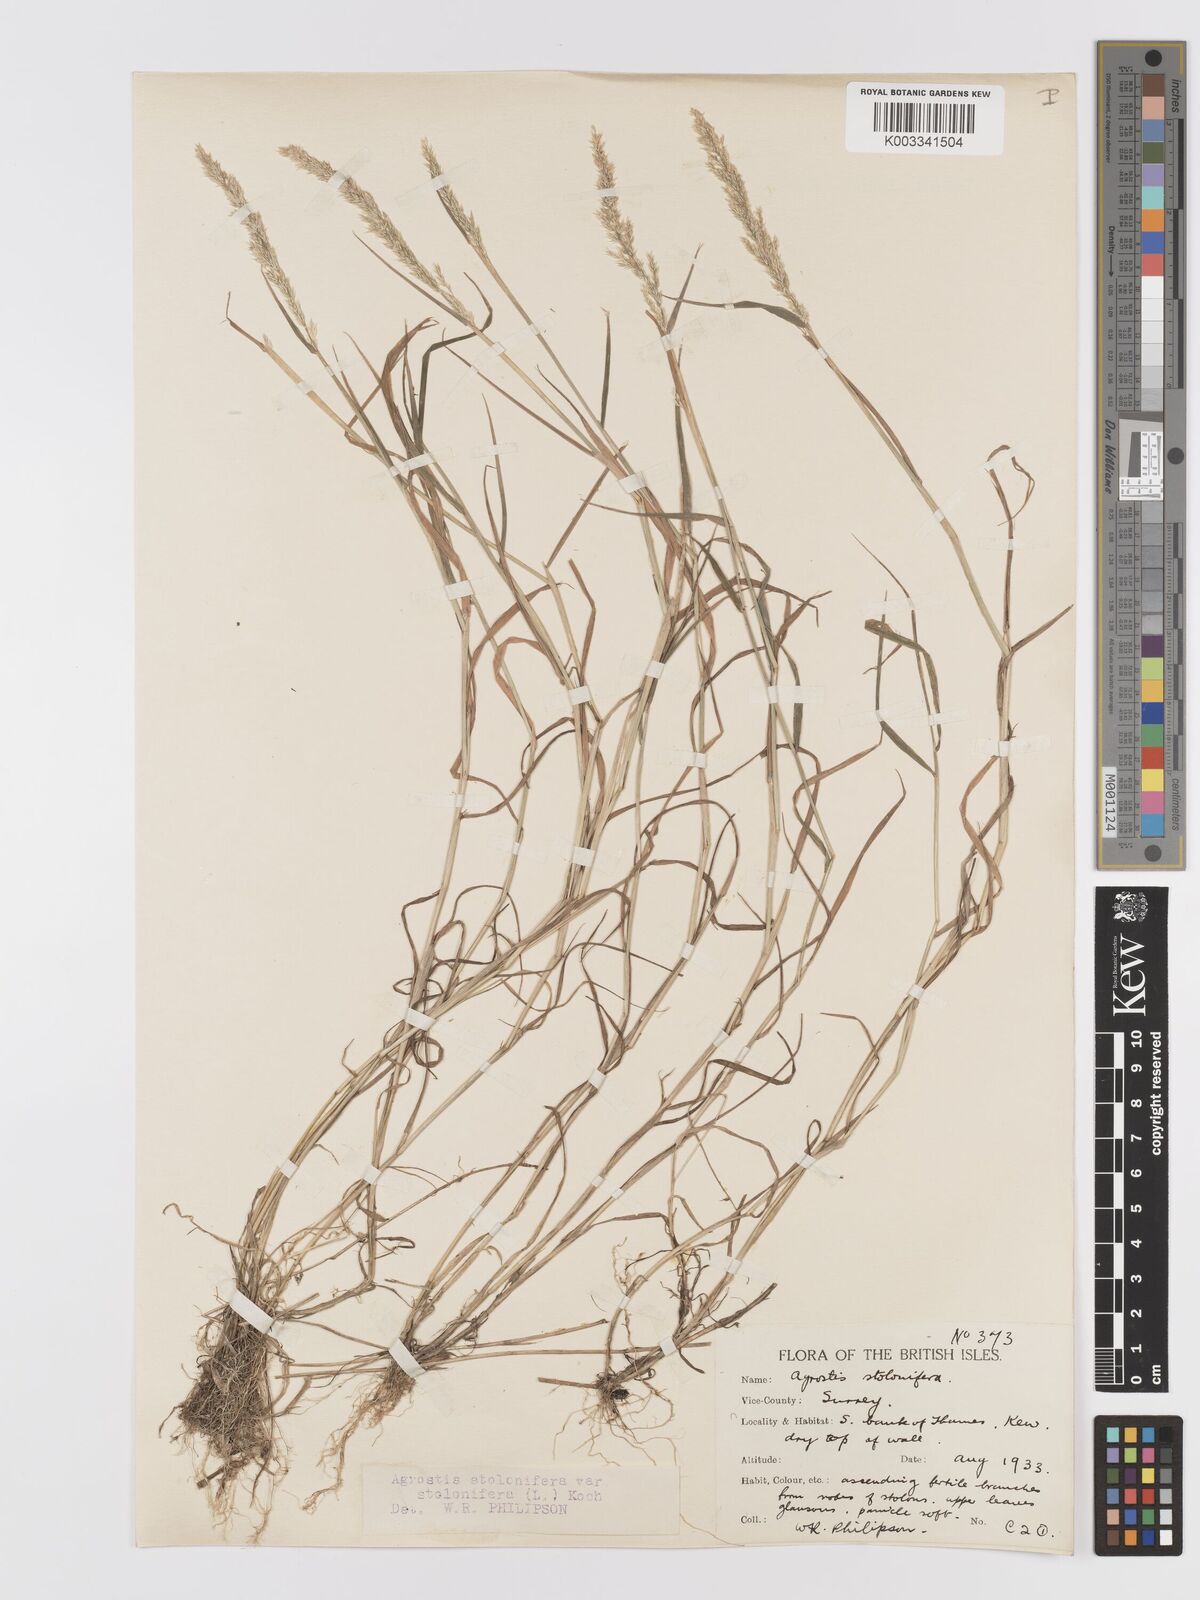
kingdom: Plantae
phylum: Tracheophyta
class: Liliopsida
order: Poales
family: Poaceae
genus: Agrostis
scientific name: Agrostis stolonifera
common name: Creeping bentgrass
